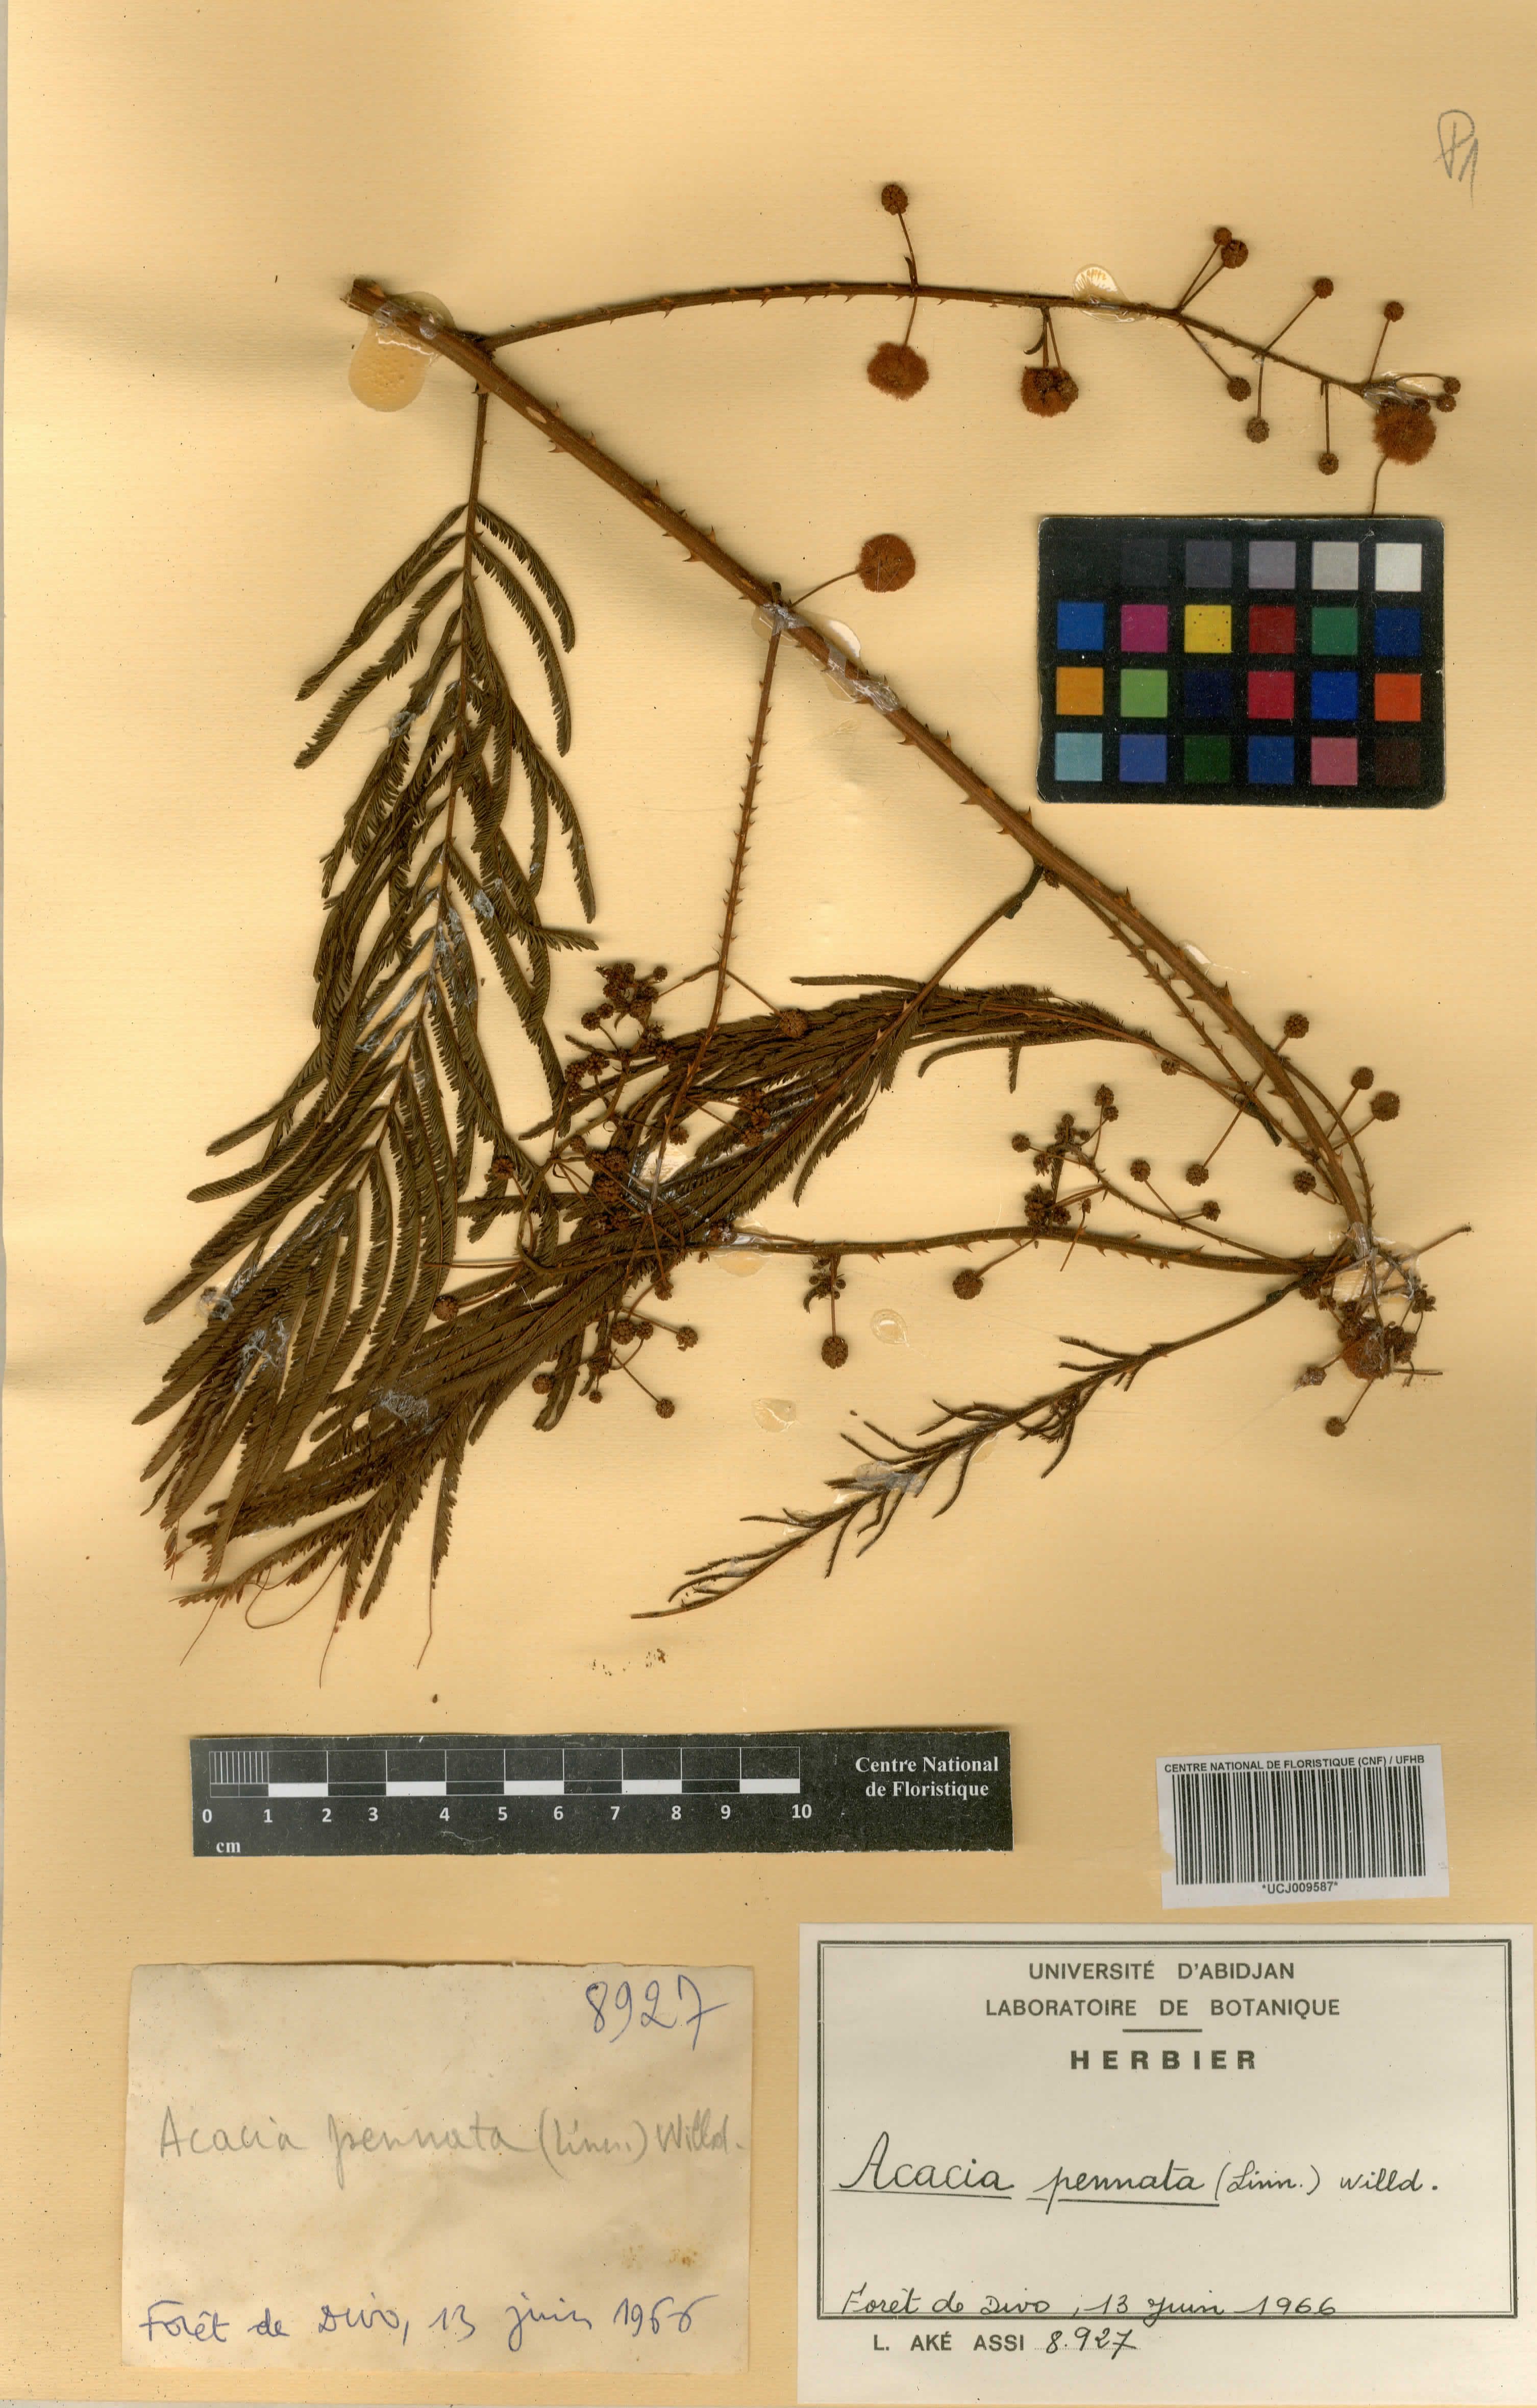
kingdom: Plantae
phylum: Tracheophyta
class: Magnoliopsida
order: Fabales
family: Fabaceae
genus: Senegalia
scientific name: Senegalia pennata
